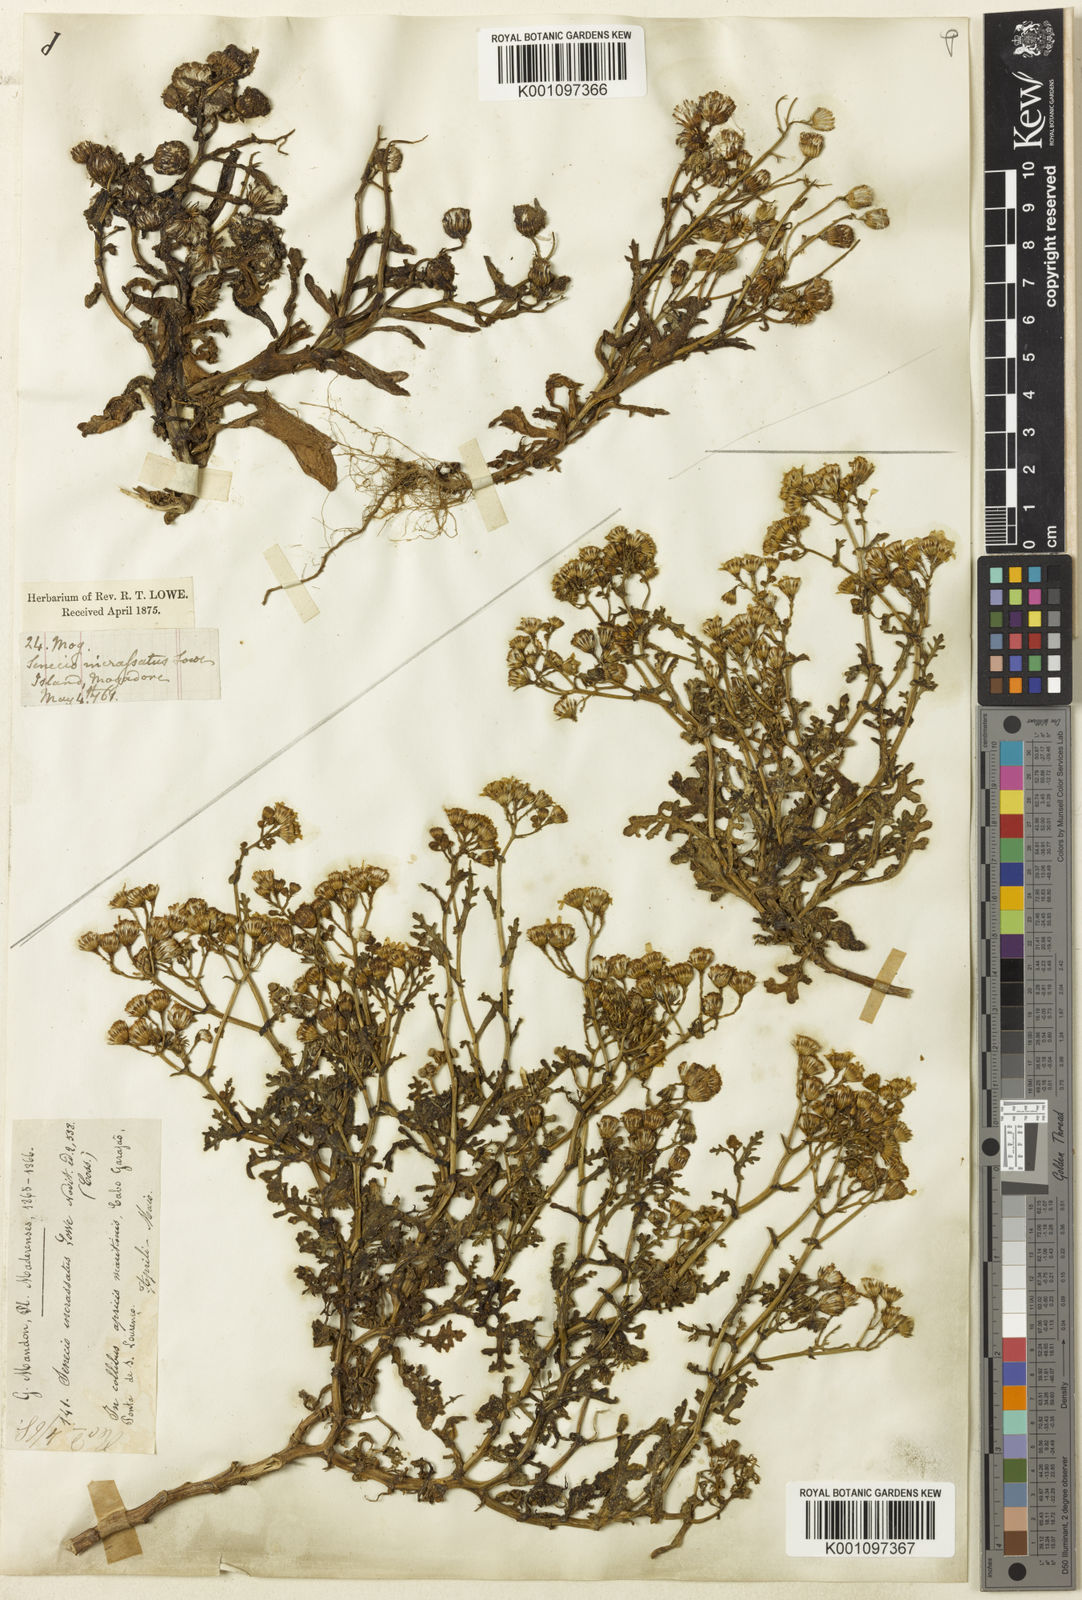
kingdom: Plantae
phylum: Tracheophyta
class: Magnoliopsida
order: Asterales
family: Asteraceae
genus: Senecio
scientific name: Senecio incrassatus
